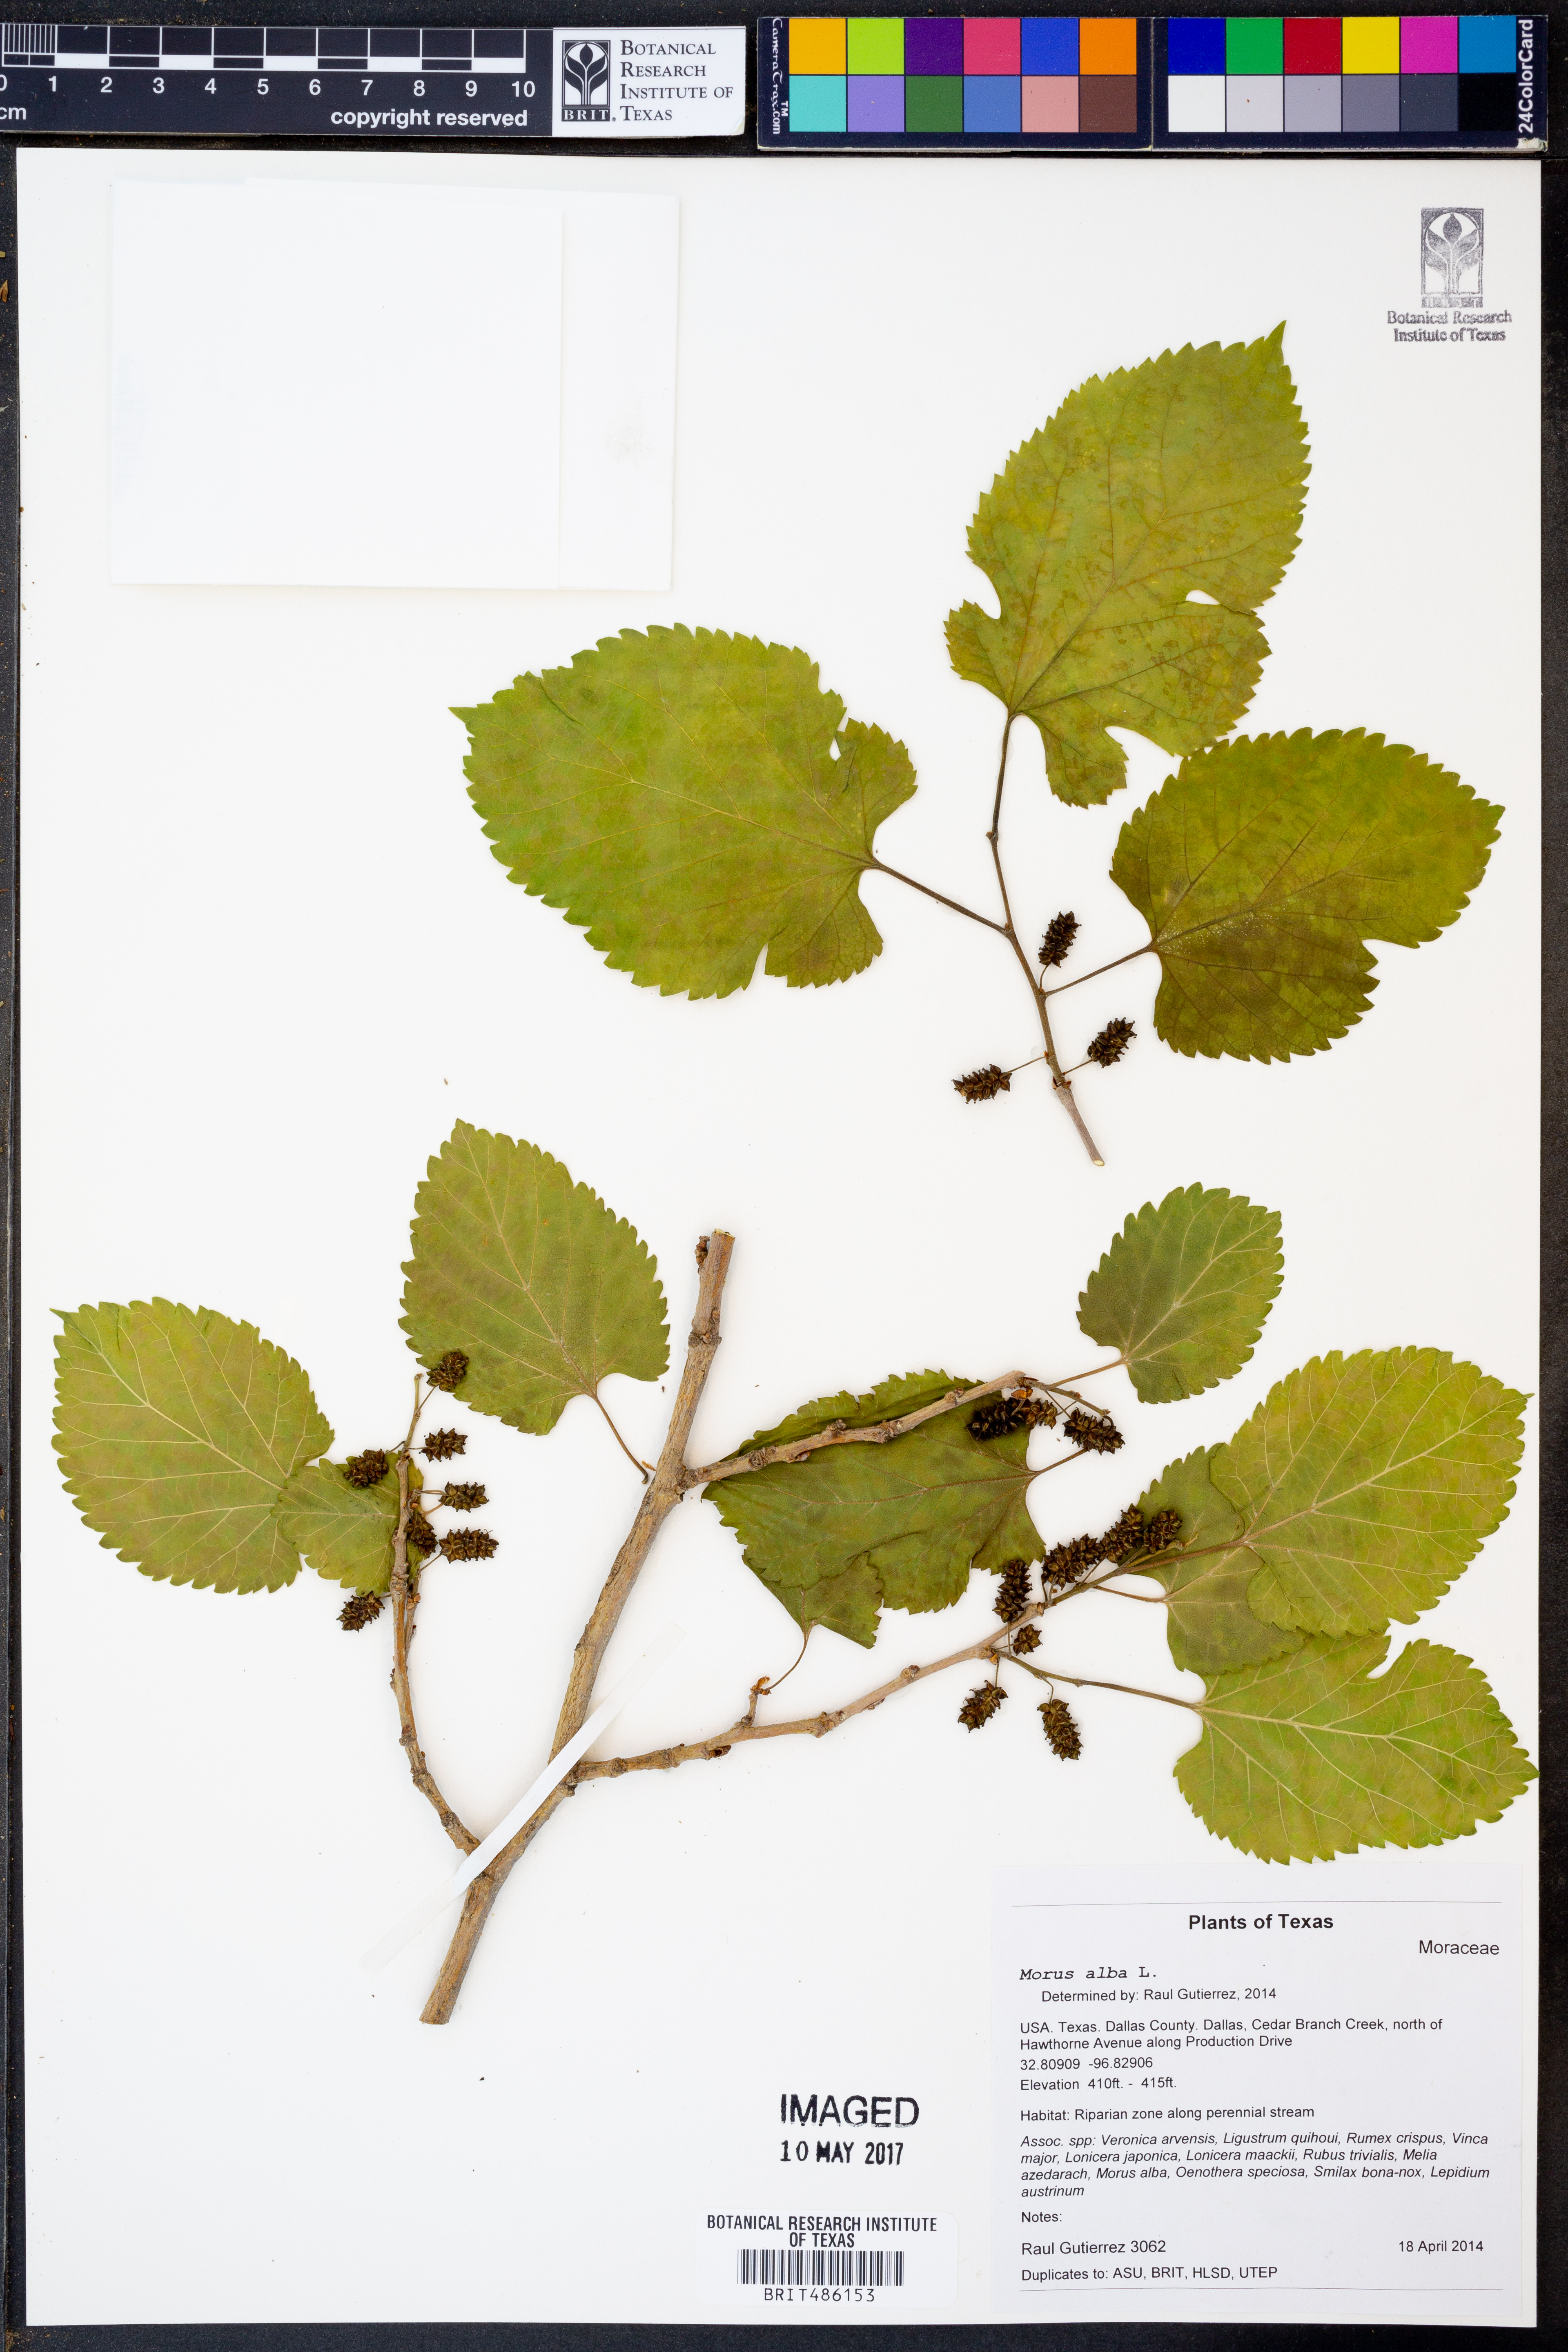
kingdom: Plantae
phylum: Tracheophyta
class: Magnoliopsida
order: Rosales
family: Moraceae
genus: Morus
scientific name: Morus alba
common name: White mulberry
